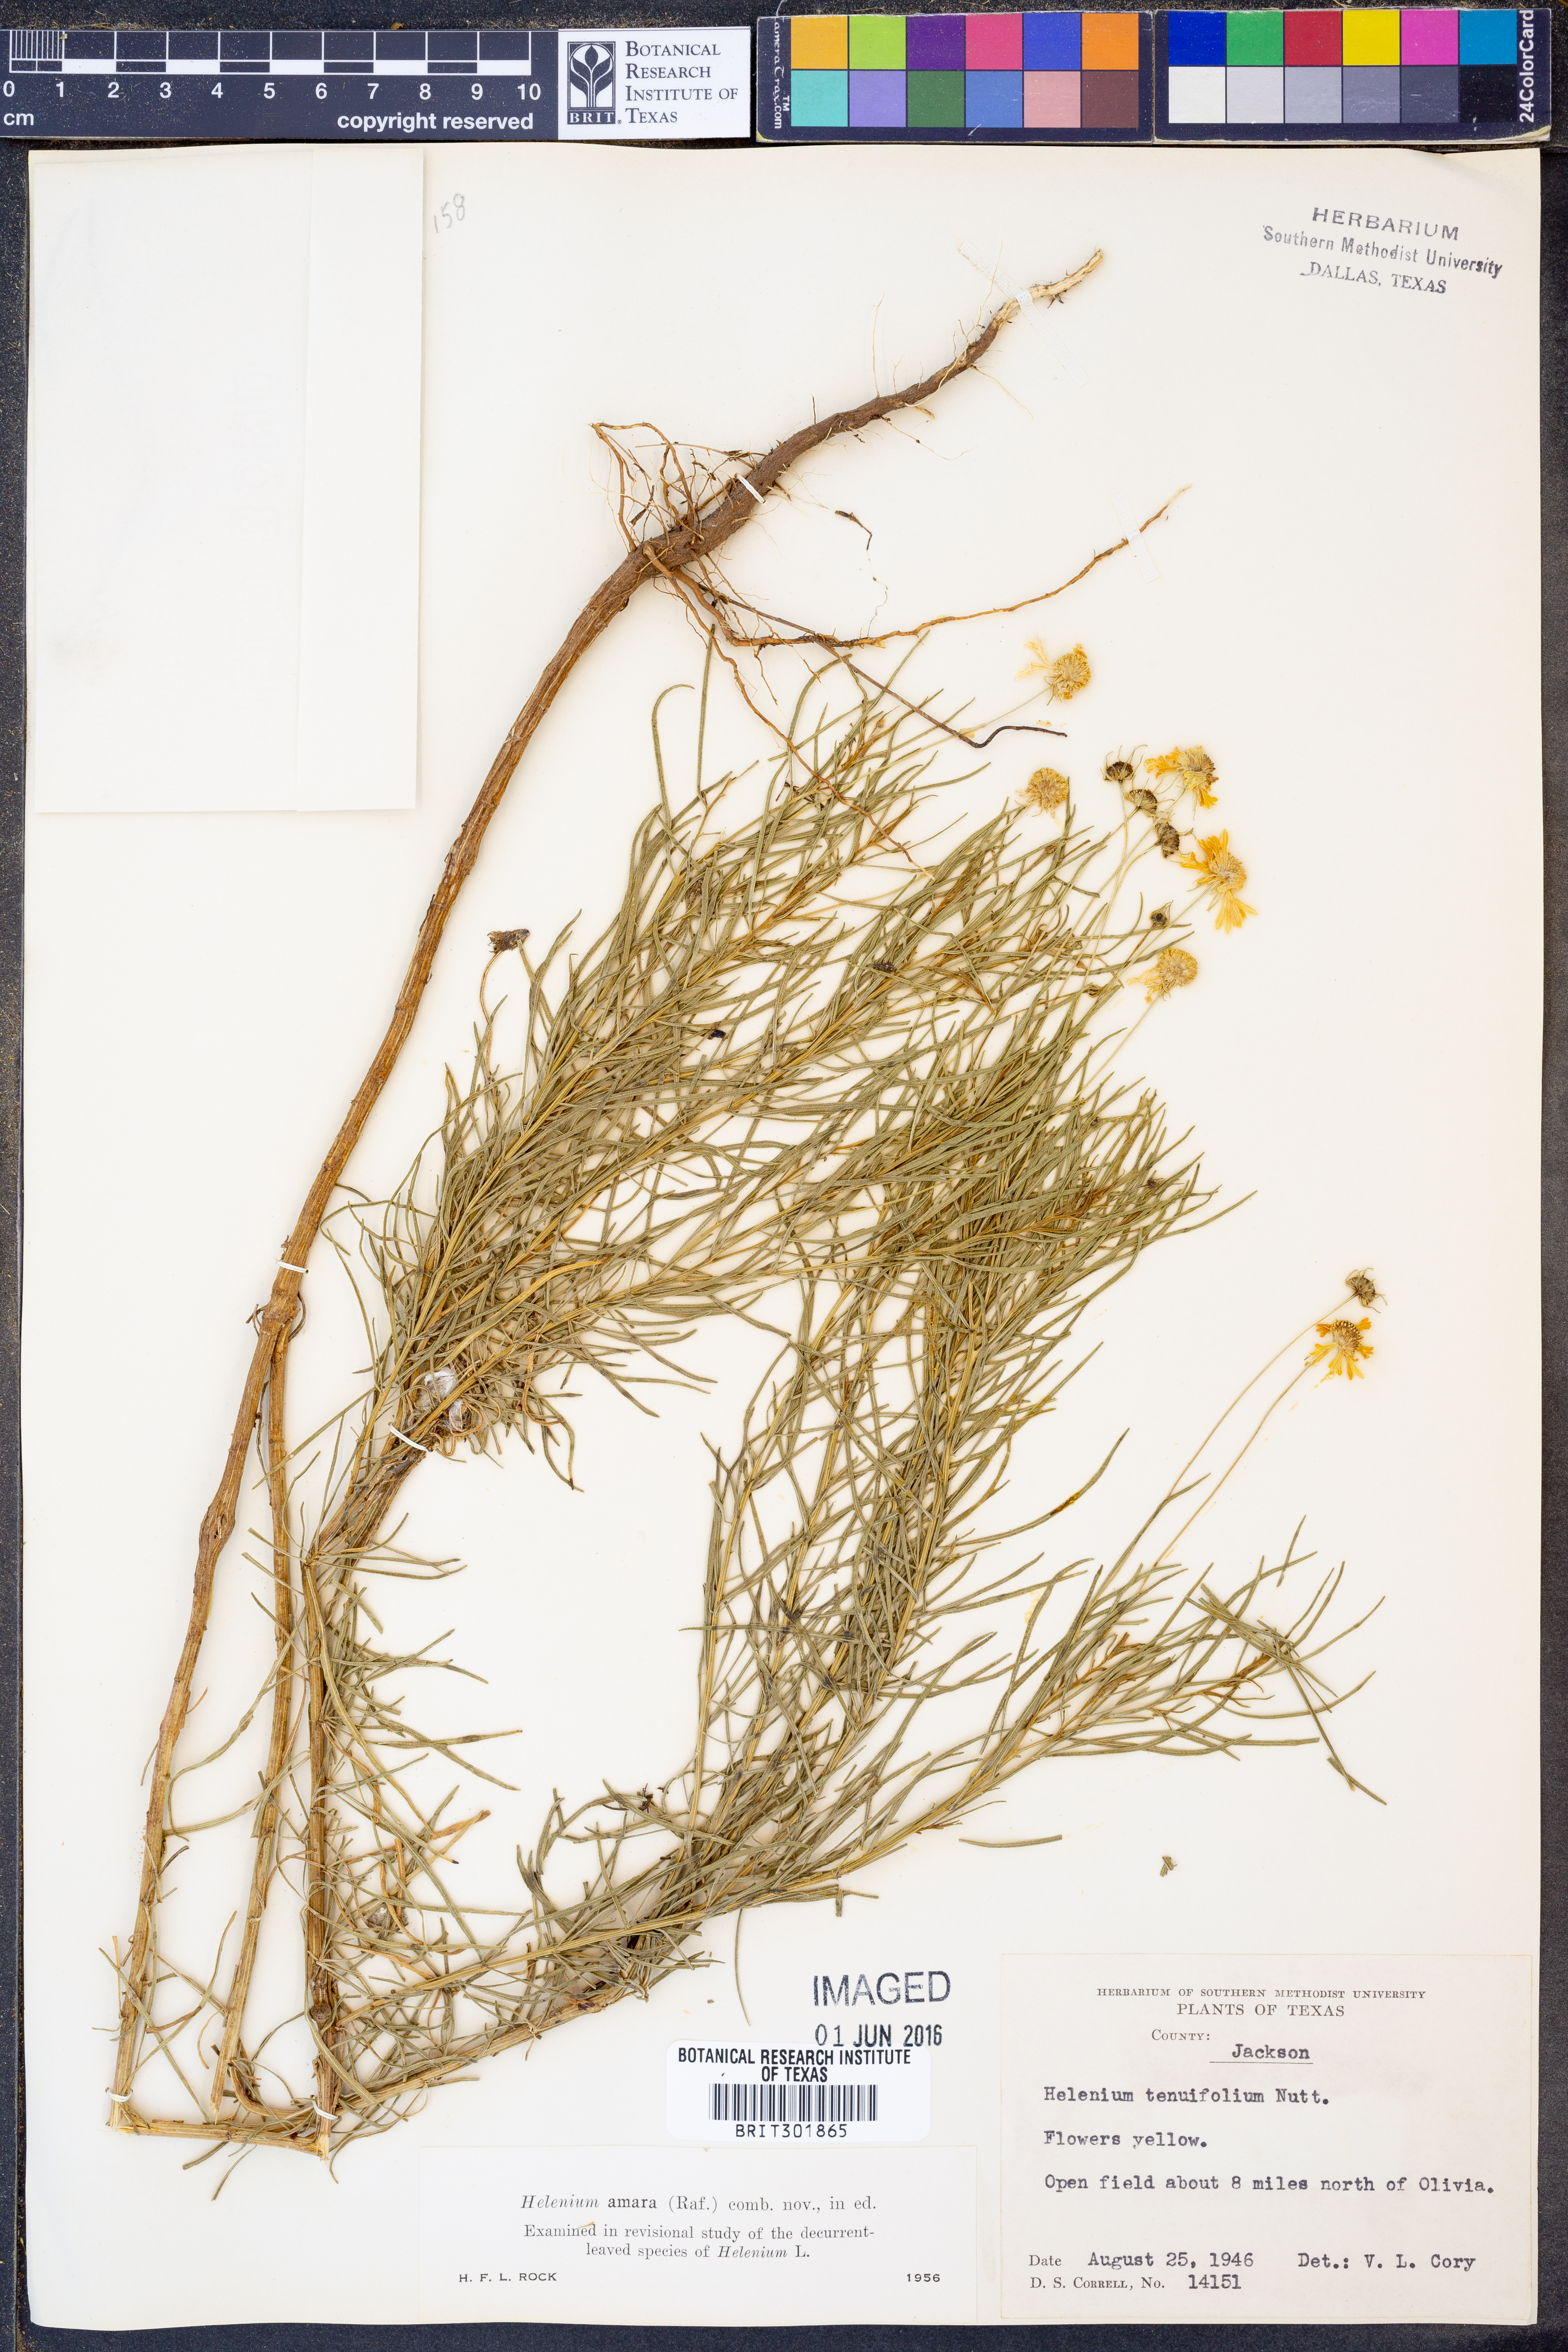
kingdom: Plantae
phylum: Tracheophyta
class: Magnoliopsida
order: Asterales
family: Asteraceae
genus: Helenium
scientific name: Helenium amarum
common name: Bitter sneezeweed
